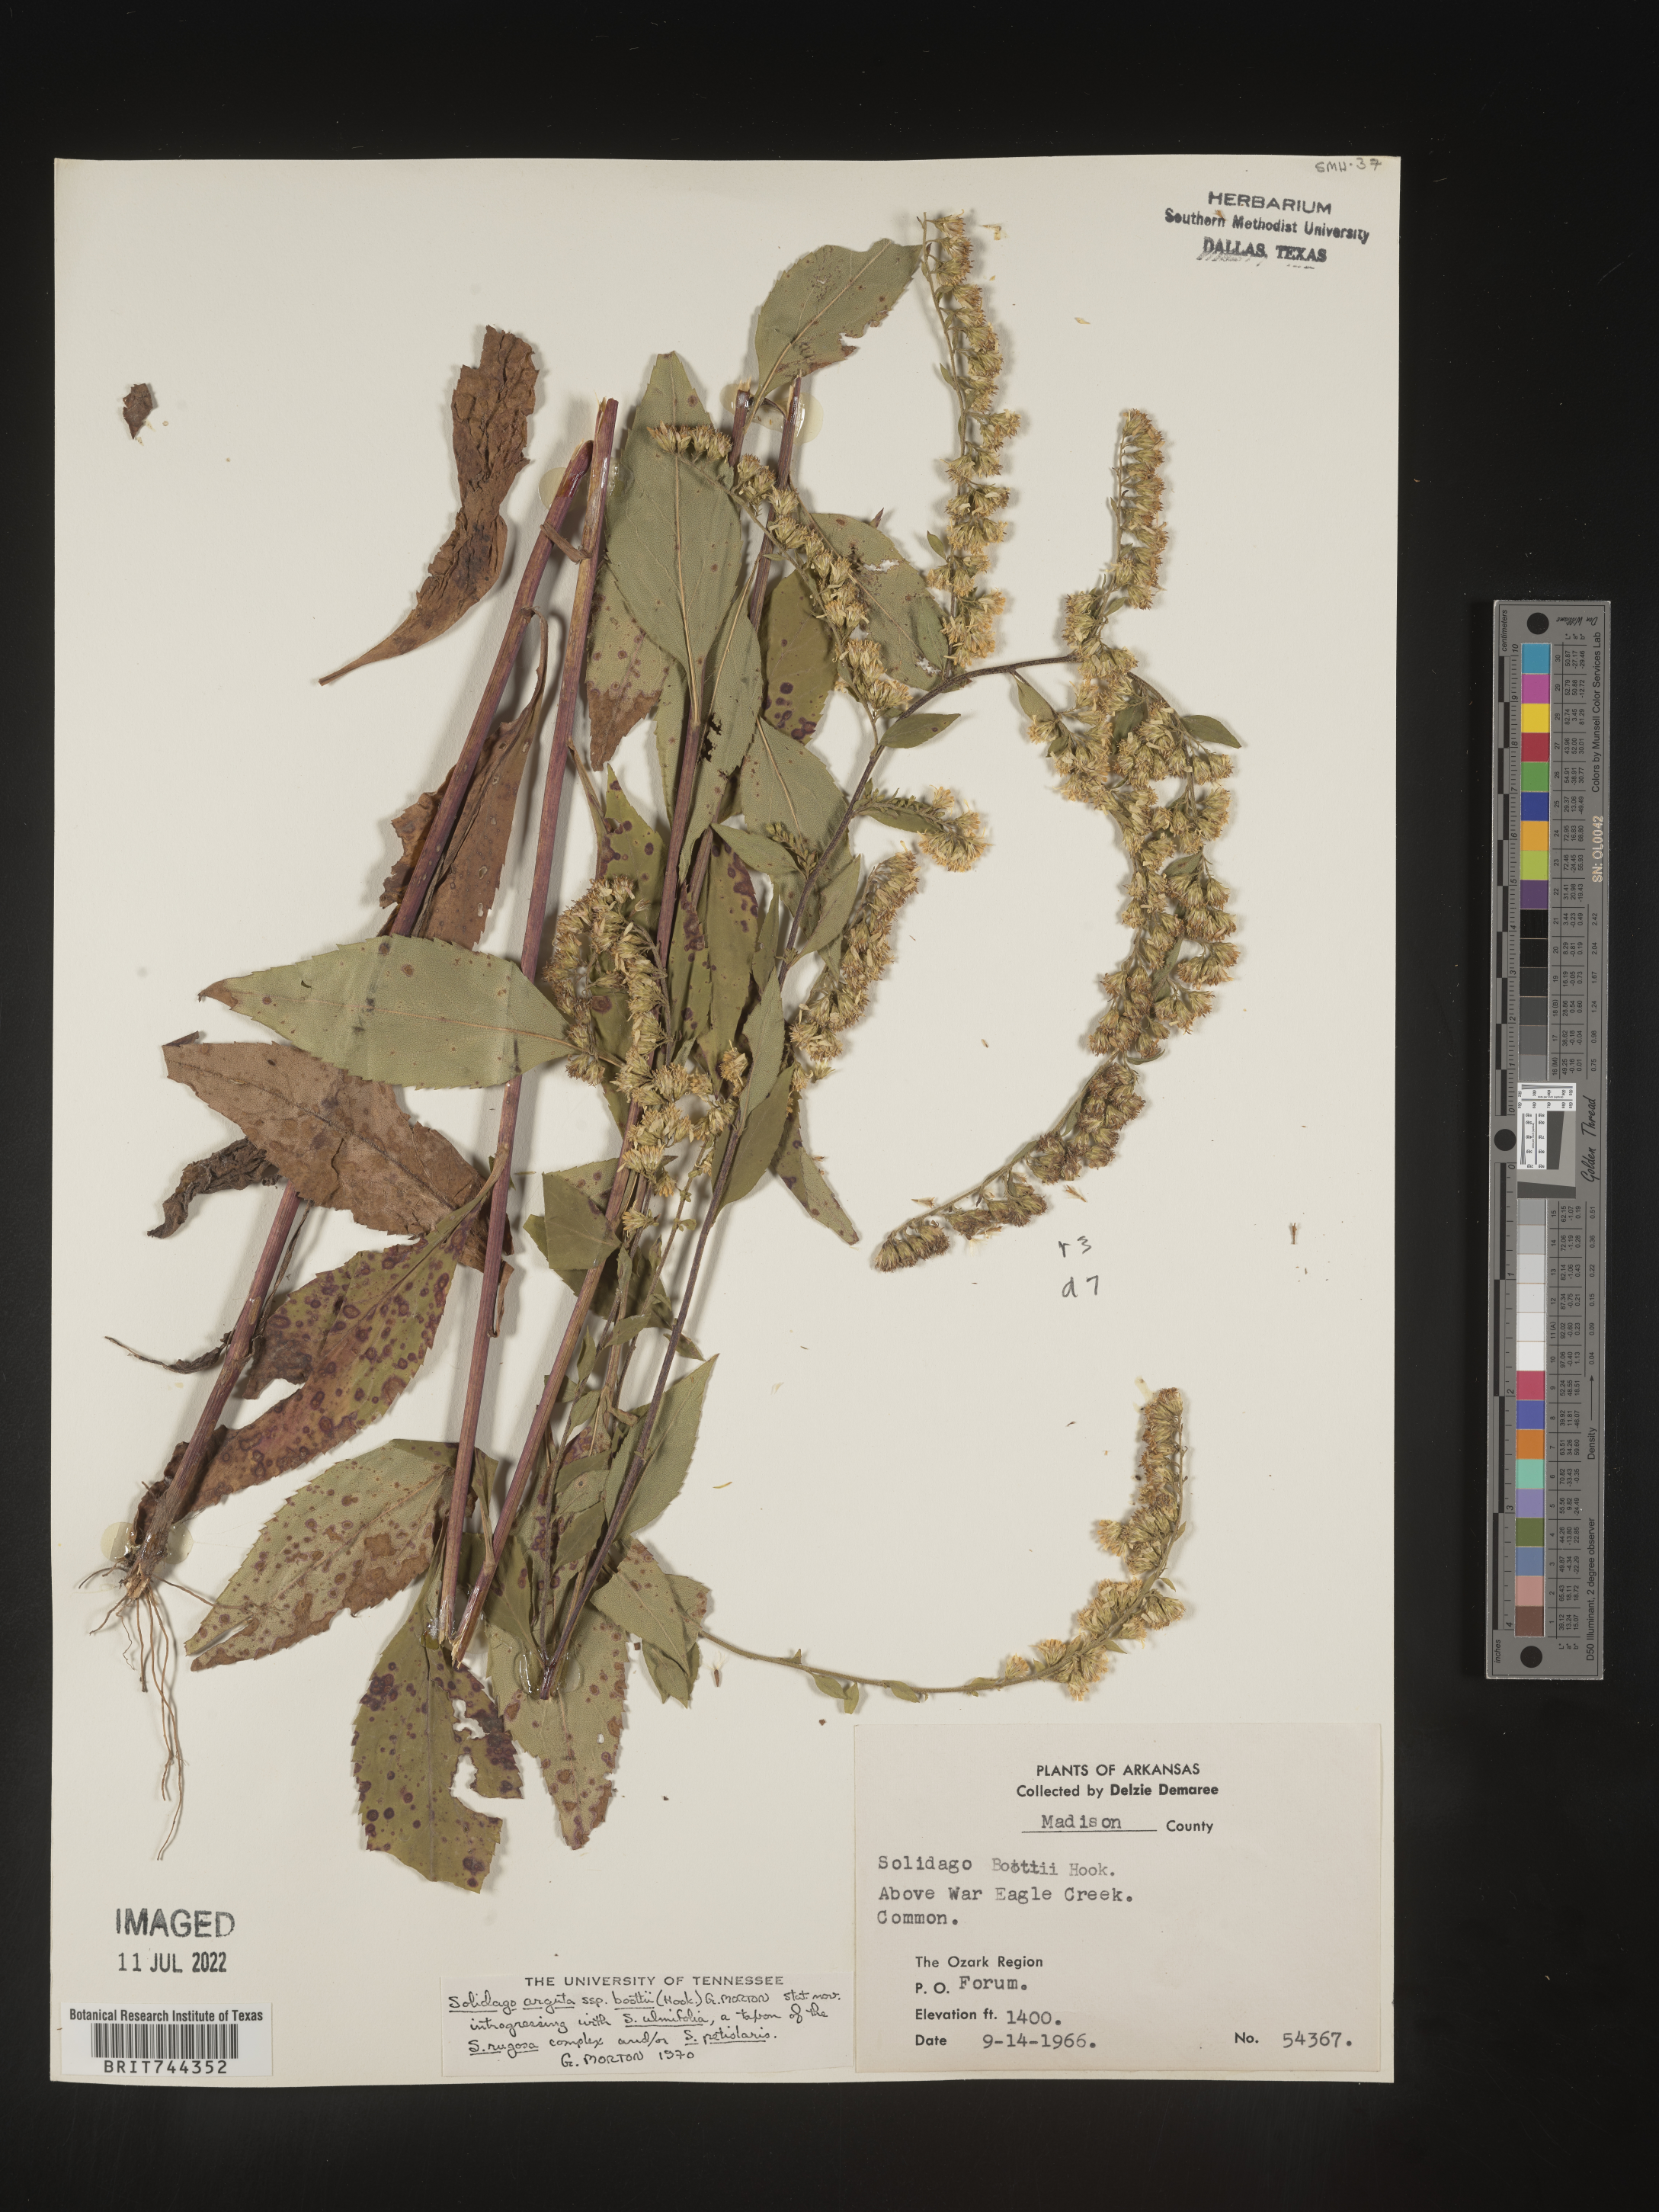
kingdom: Plantae
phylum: Tracheophyta
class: Magnoliopsida
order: Asterales
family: Asteraceae
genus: Solidago
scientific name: Solidago arguta
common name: Atlantic goldenrod
